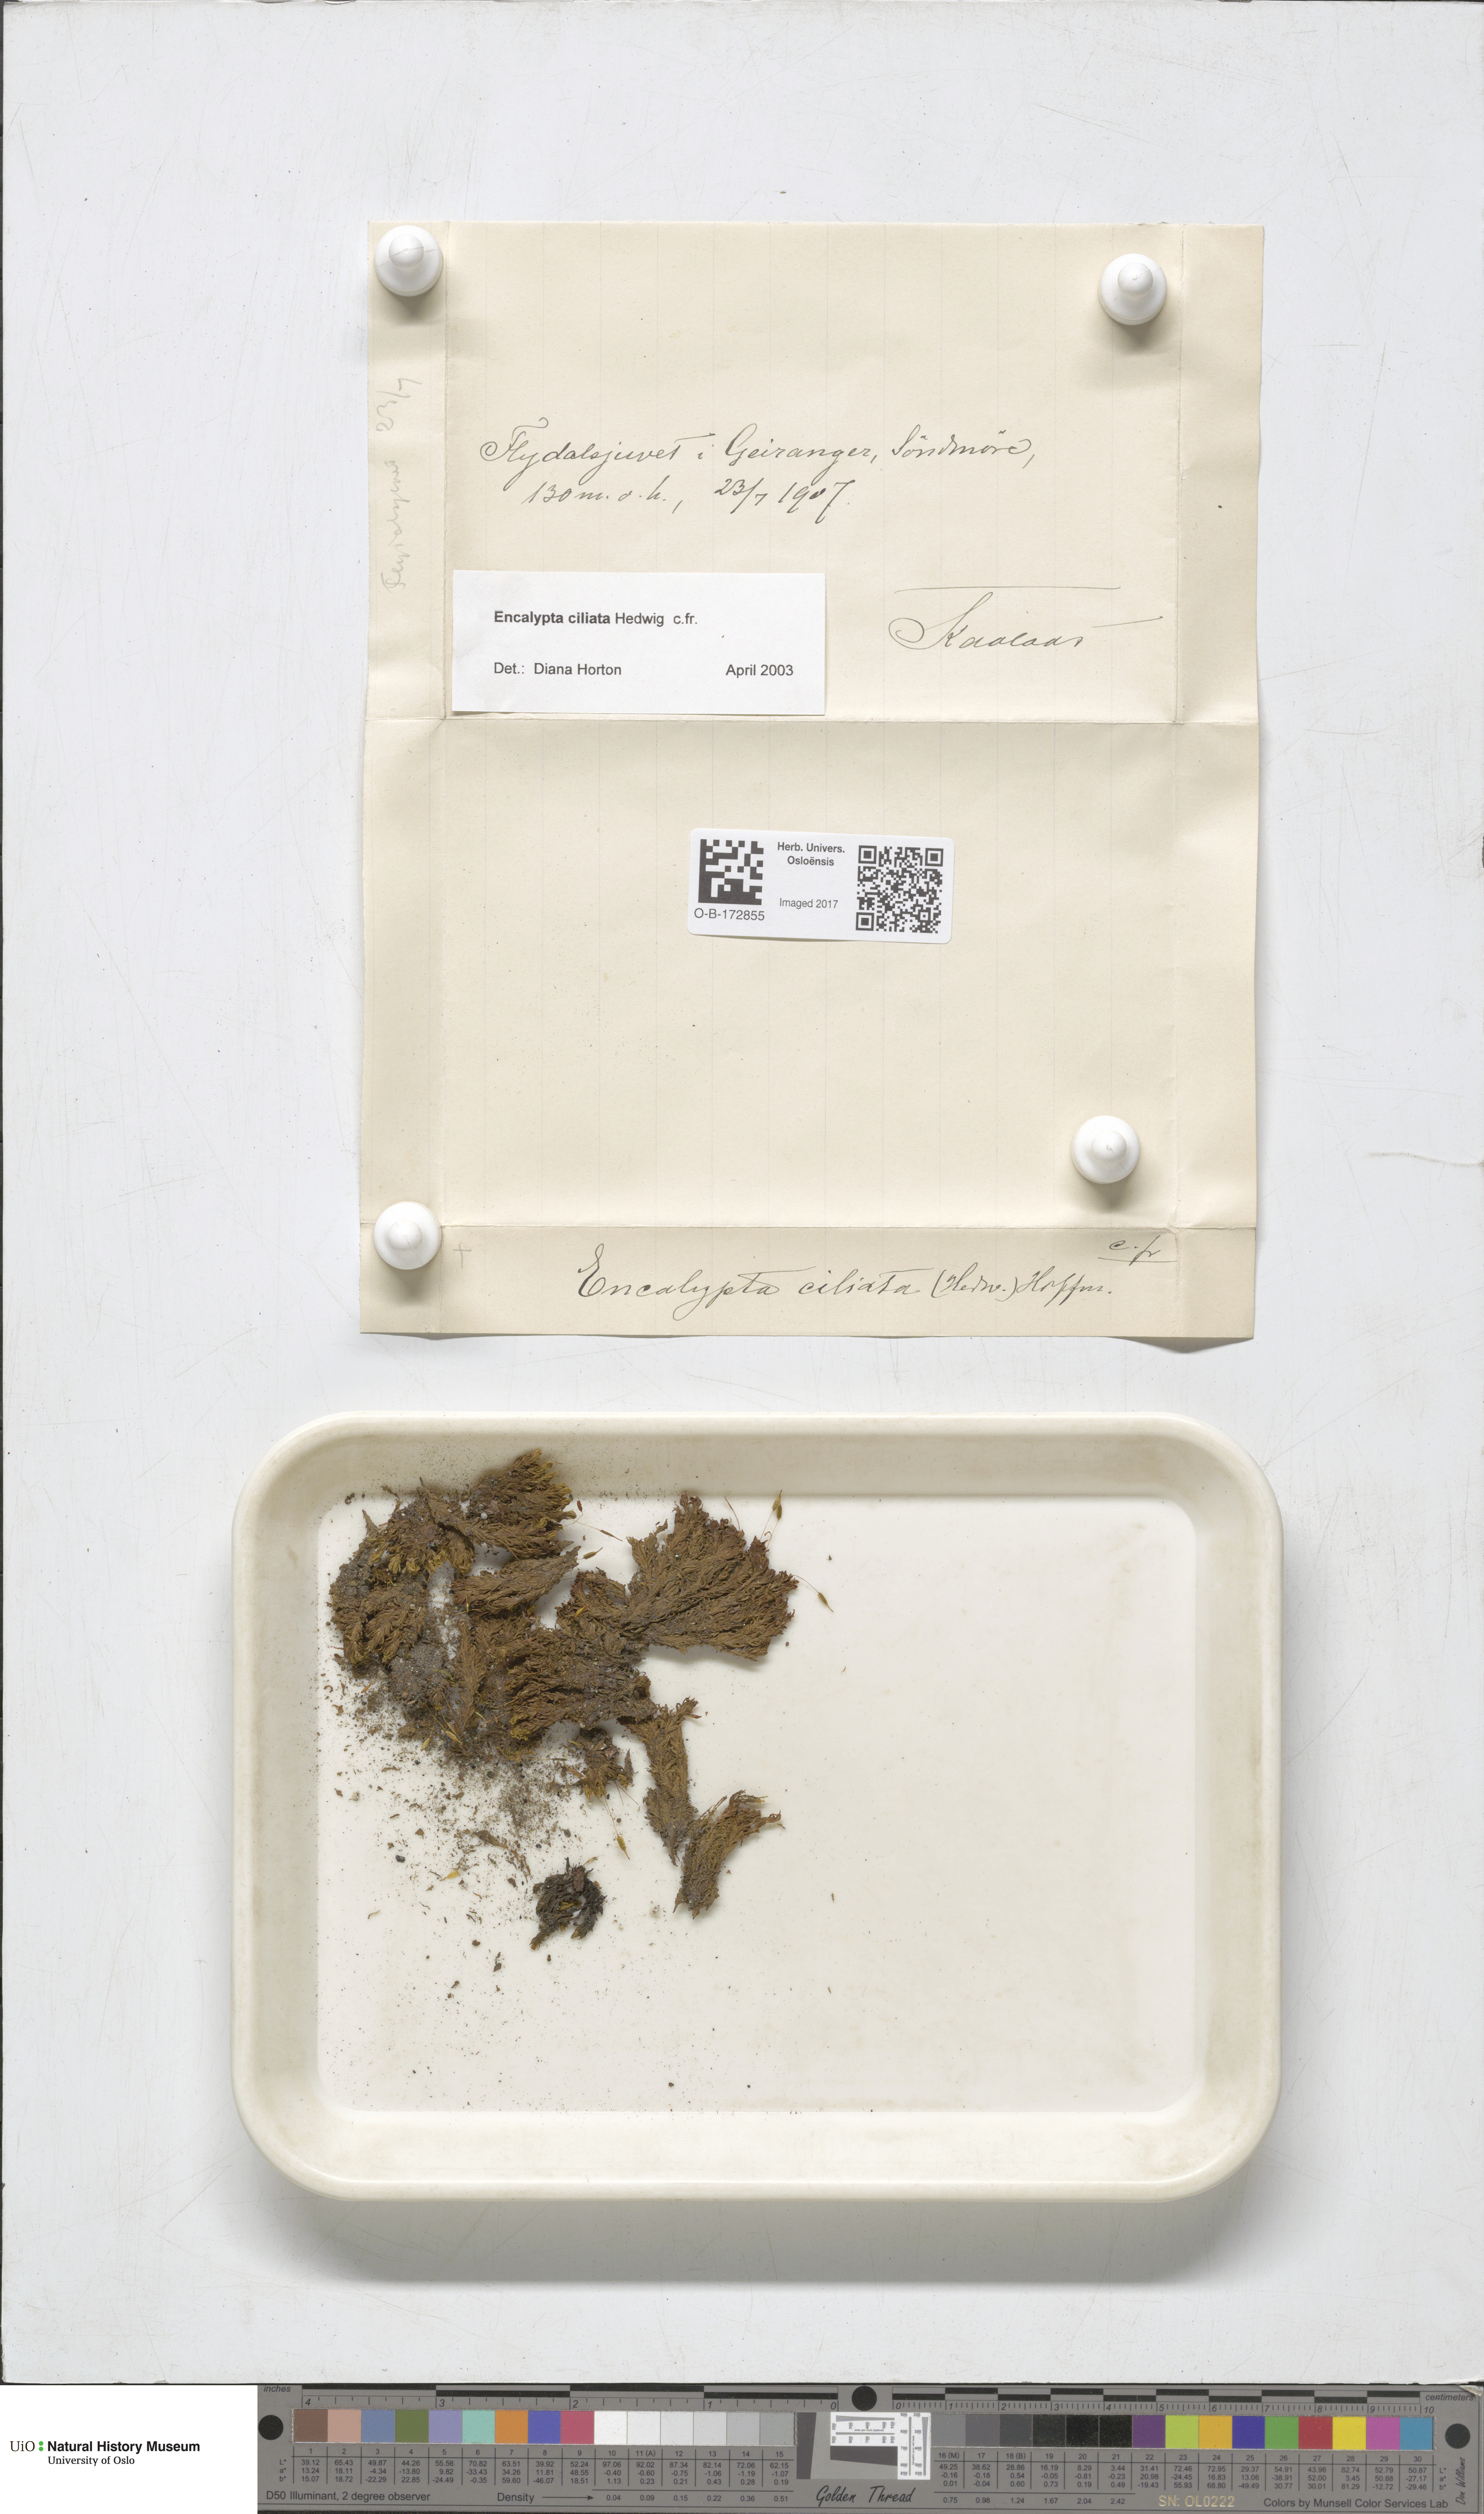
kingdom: Plantae
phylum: Bryophyta
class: Bryopsida
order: Encalyptales
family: Encalyptaceae
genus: Encalypta
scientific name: Encalypta ciliata
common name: Fringed extinguisher-moss
